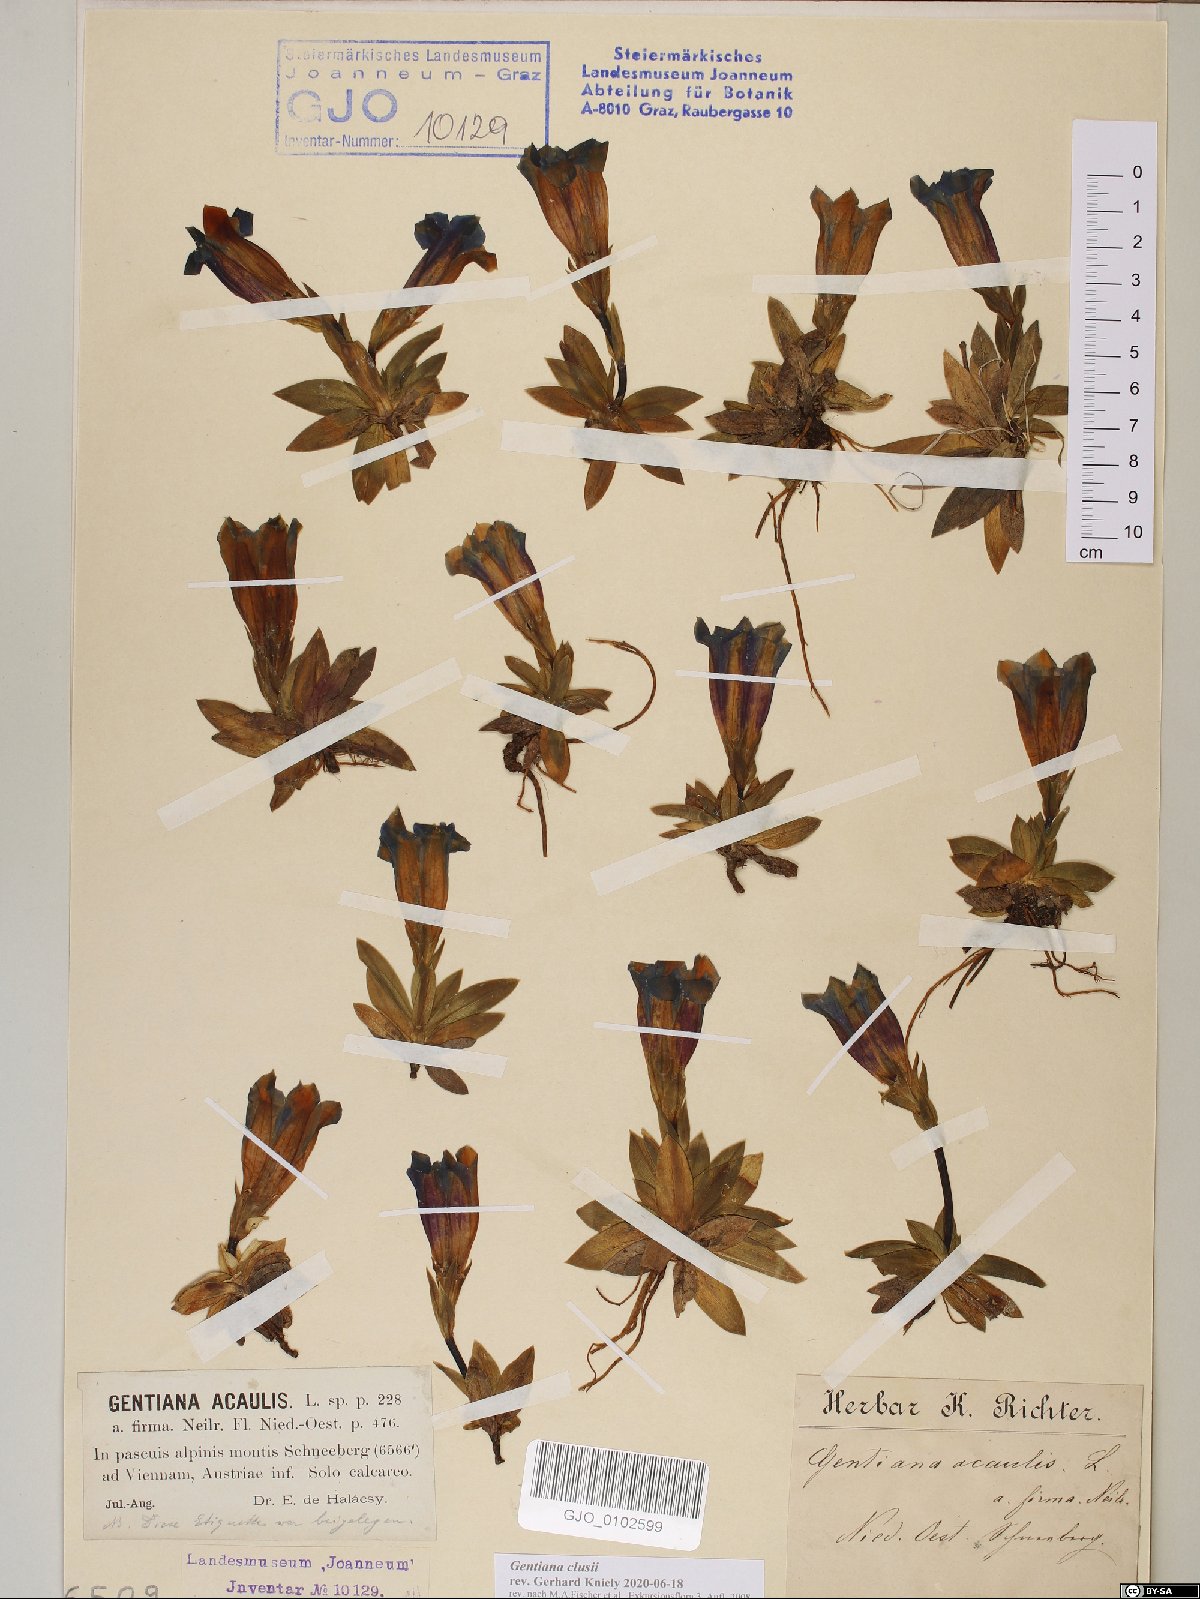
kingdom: Plantae
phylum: Tracheophyta
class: Magnoliopsida
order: Gentianales
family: Gentianaceae
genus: Gentiana
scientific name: Gentiana clusii
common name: Trumpet gentian
